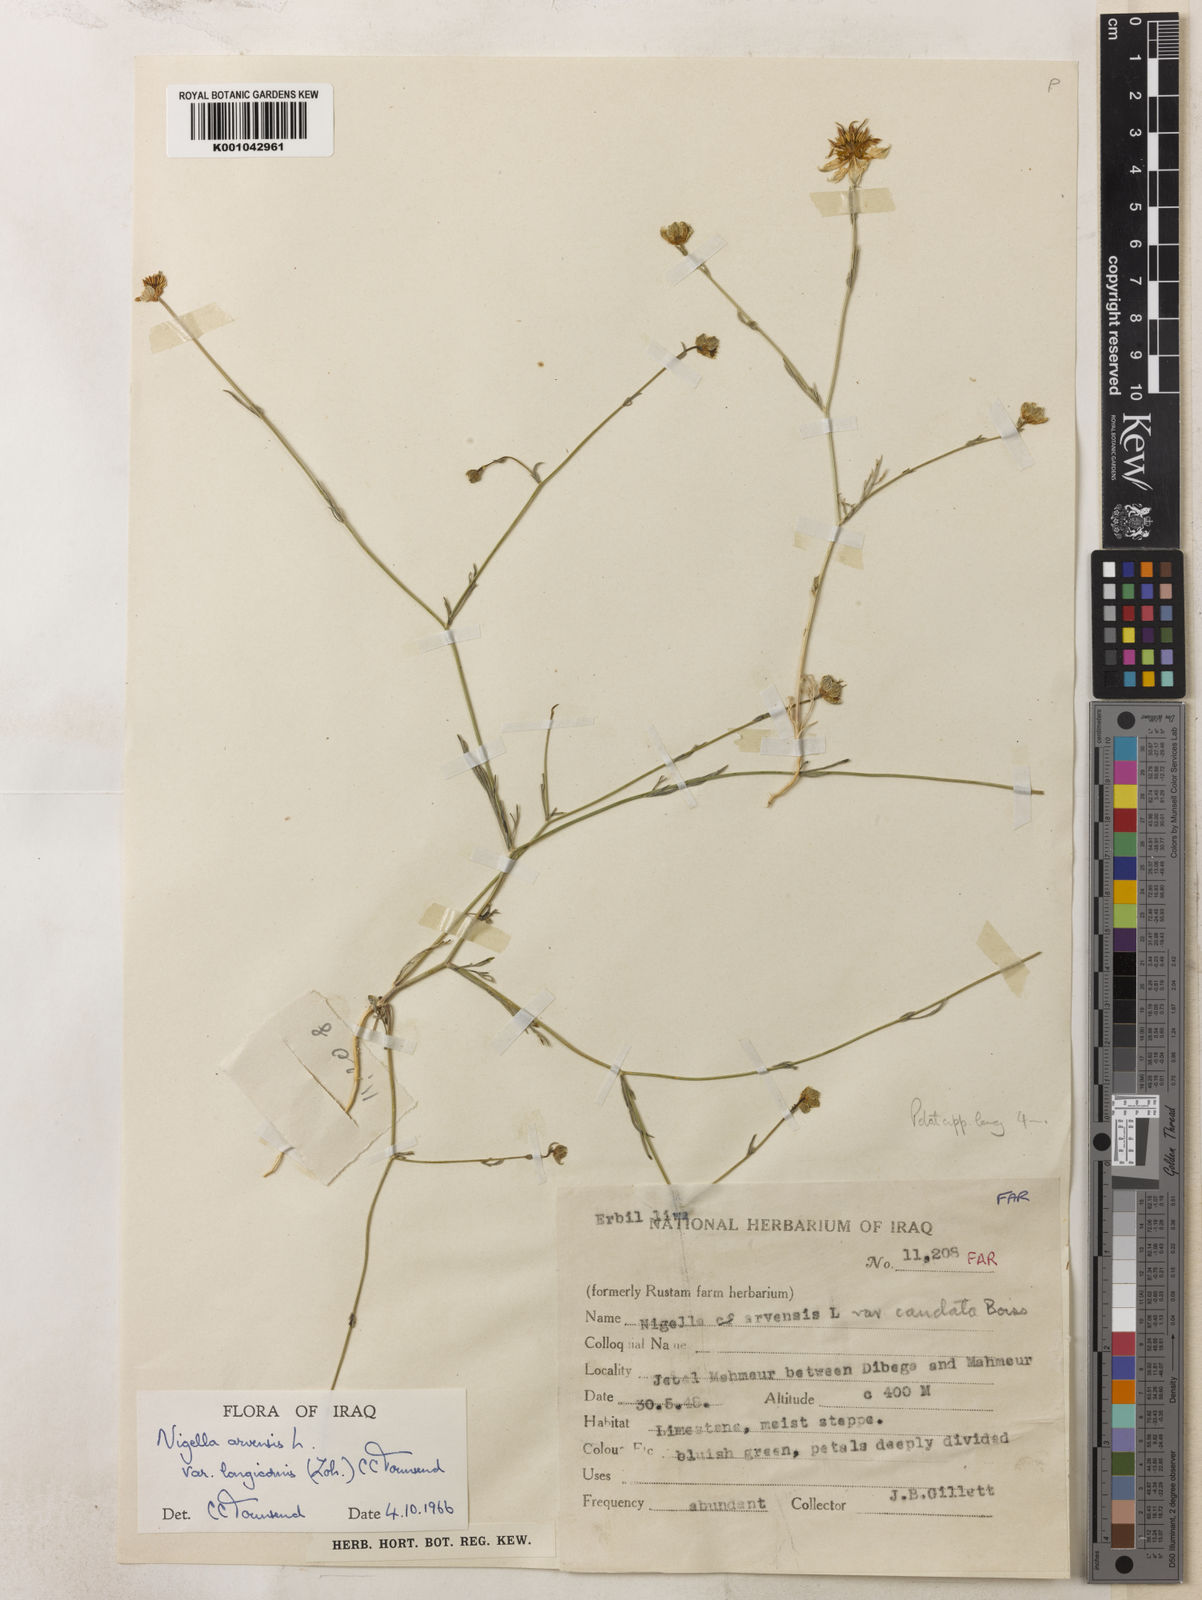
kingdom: Plantae
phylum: Tracheophyta
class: Magnoliopsida
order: Ranunculales
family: Ranunculaceae
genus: Nigella
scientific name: Nigella arvensis
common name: Wild fennel-flower
